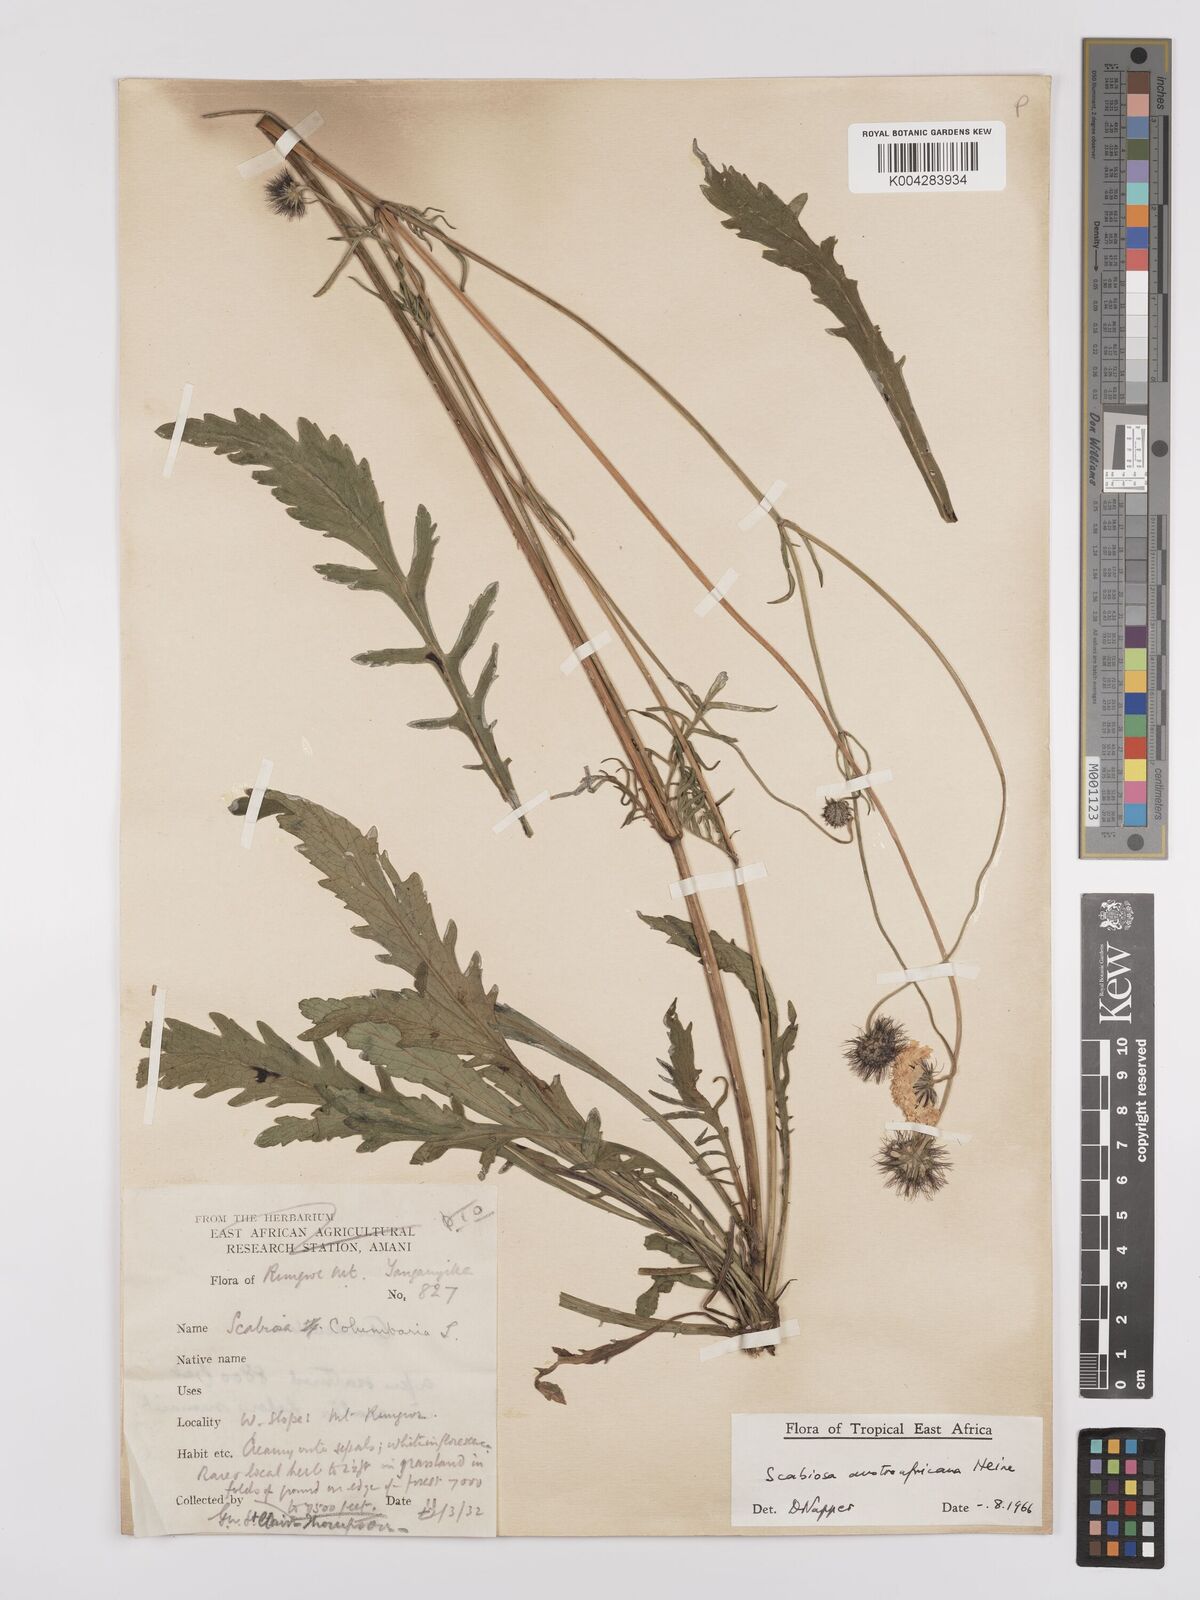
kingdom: Plantae
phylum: Tracheophyta
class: Magnoliopsida
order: Dipsacales
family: Caprifoliaceae
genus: Scabiosa
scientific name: Scabiosa austroafricana
